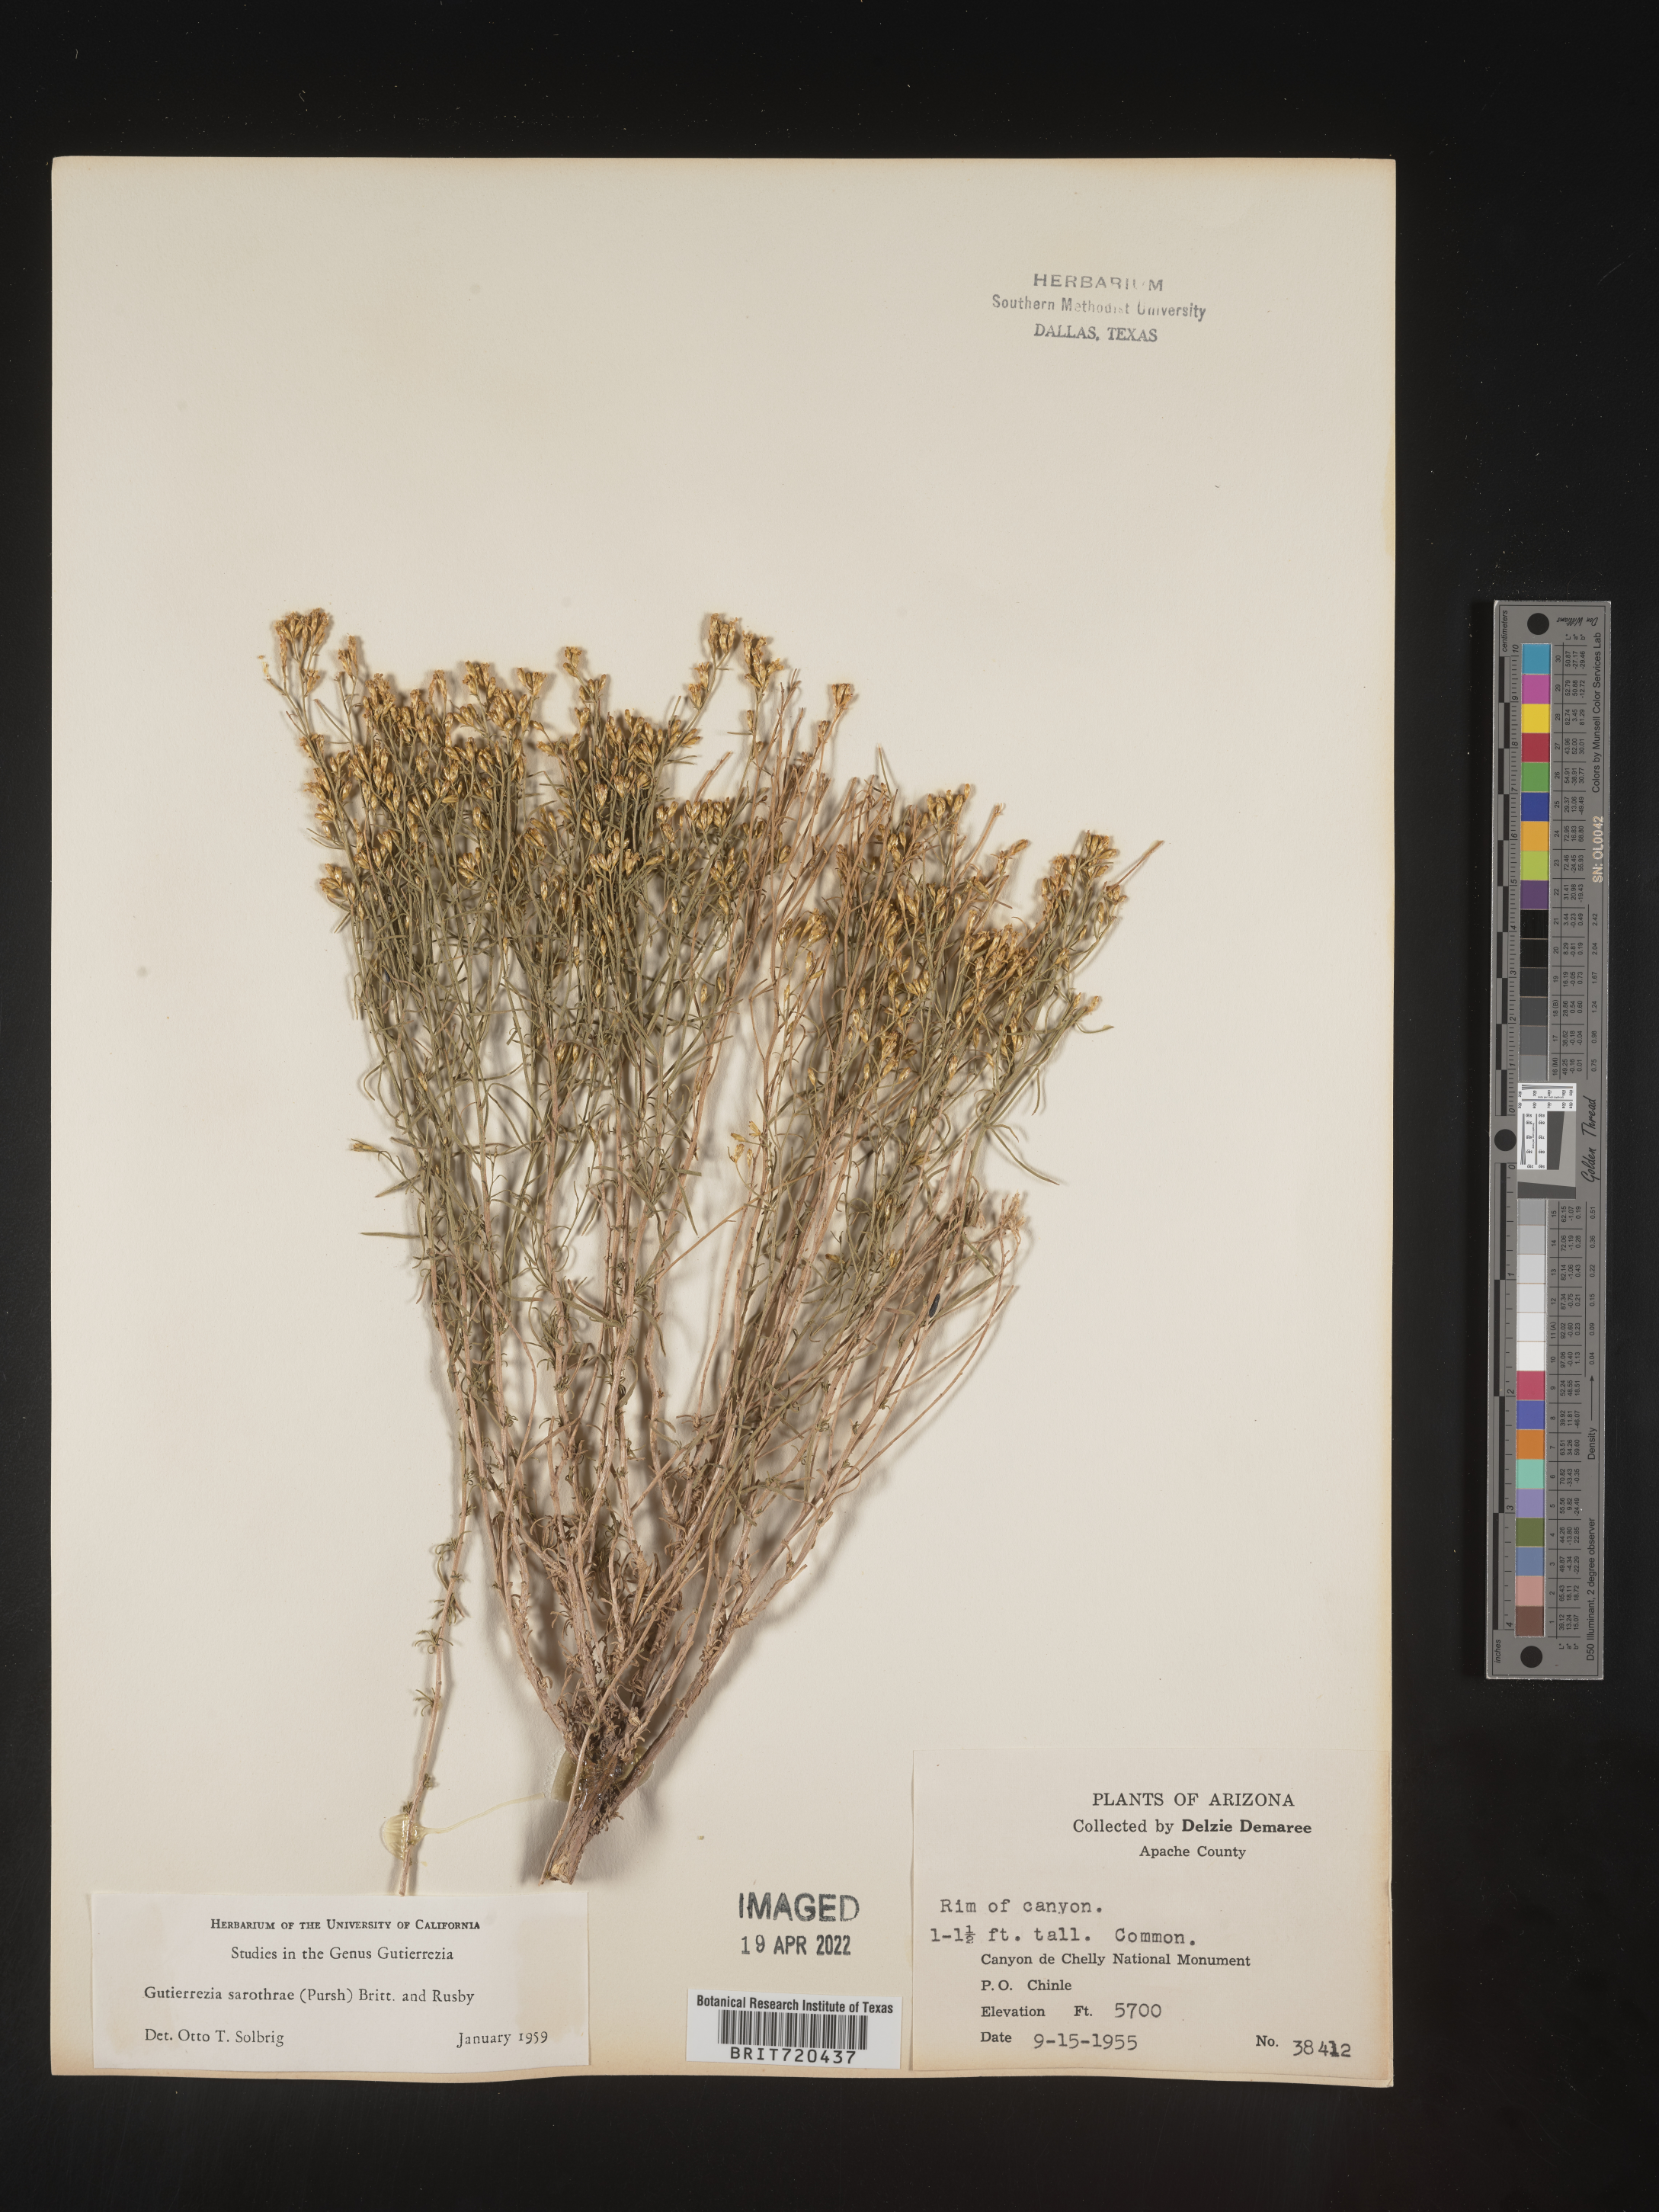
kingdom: Plantae
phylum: Tracheophyta
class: Magnoliopsida
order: Asterales
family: Asteraceae
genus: Gutierrezia
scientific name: Gutierrezia sarothrae
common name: Broom snakeweed
